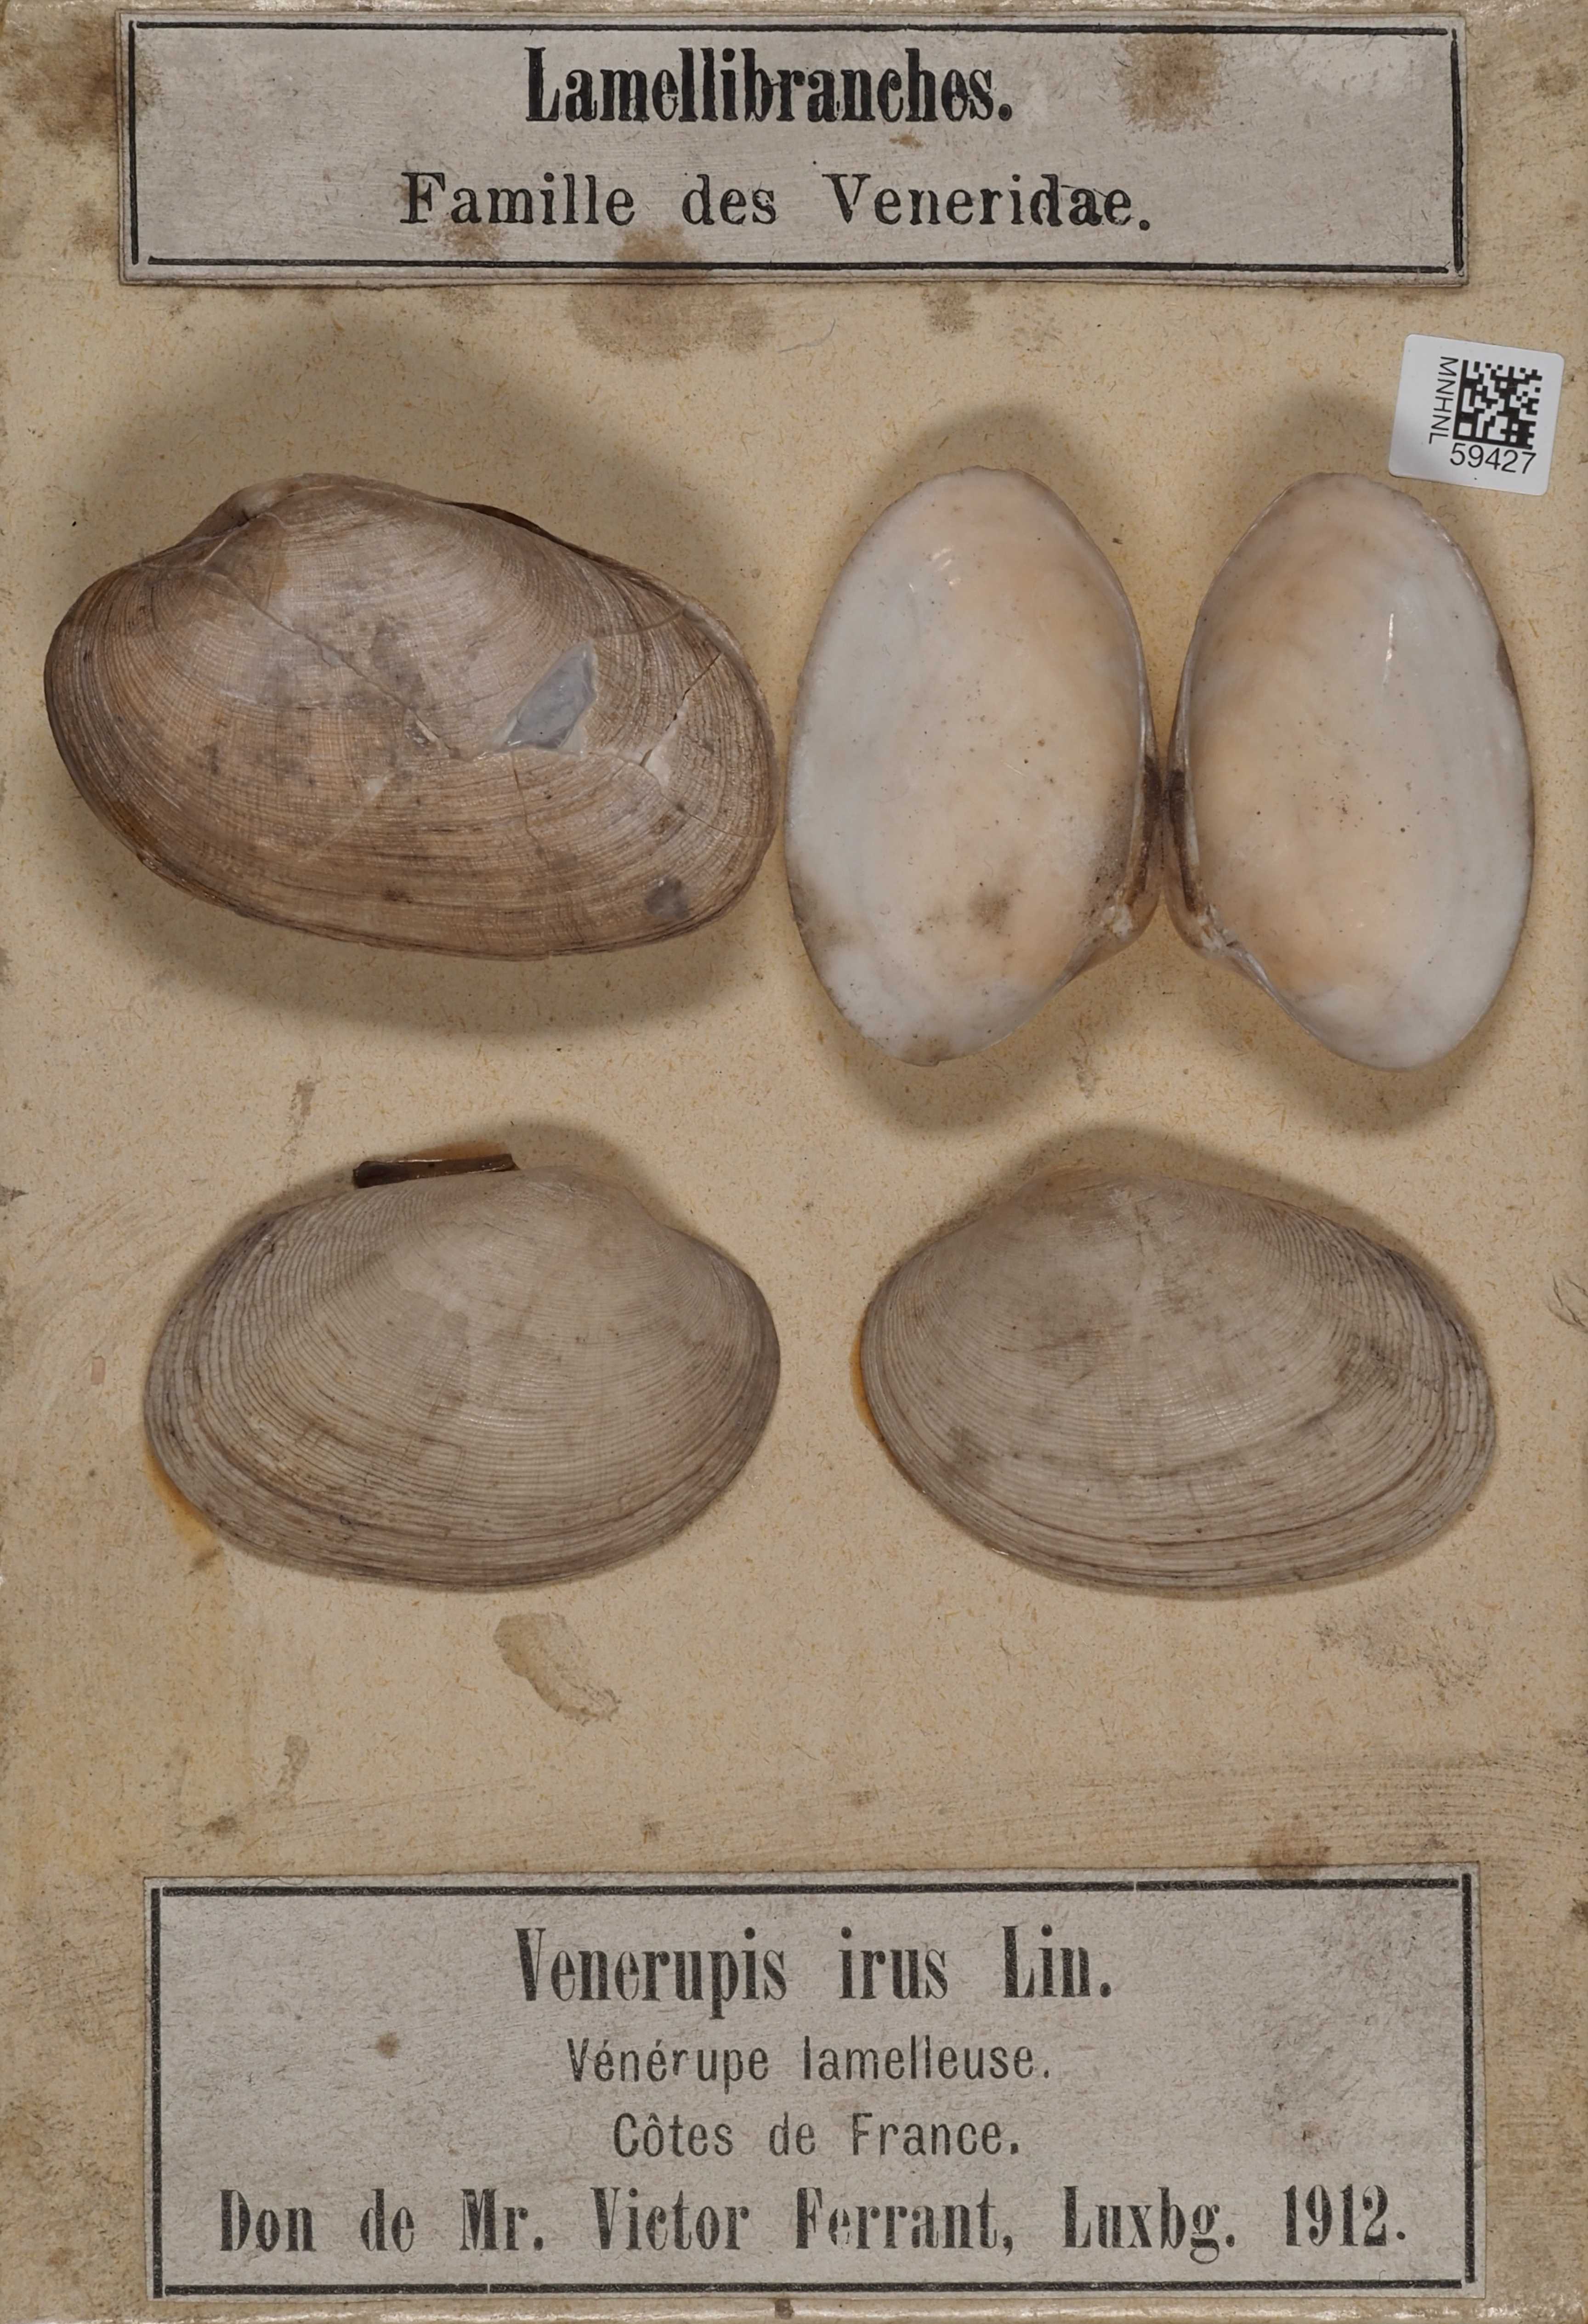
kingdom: Animalia
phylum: Mollusca
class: Bivalvia
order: Venerida
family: Veneridae
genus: Irus
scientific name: Irus irus
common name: Irus clam
